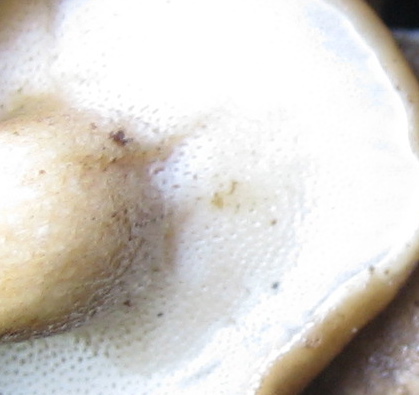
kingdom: Fungi
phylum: Basidiomycota
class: Agaricomycetes
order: Polyporales
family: Polyporaceae
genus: Lentinus
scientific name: Lentinus brumalis
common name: vinter-stilkporesvamp
